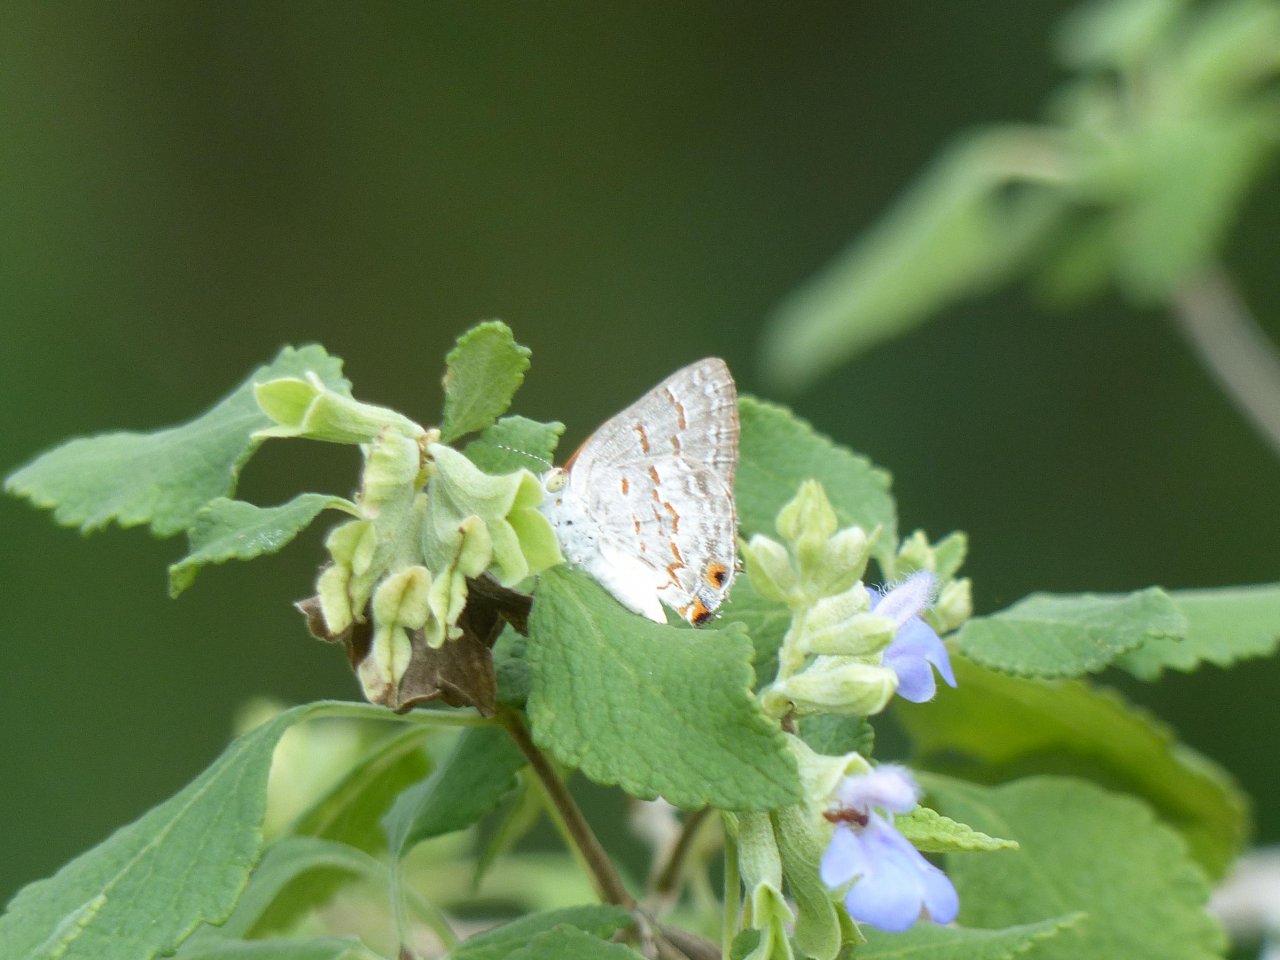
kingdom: Animalia
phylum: Arthropoda
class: Insecta
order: Lepidoptera
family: Lycaenidae
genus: Ministrymon
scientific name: Ministrymon clytie
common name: Clytie Ministreak
